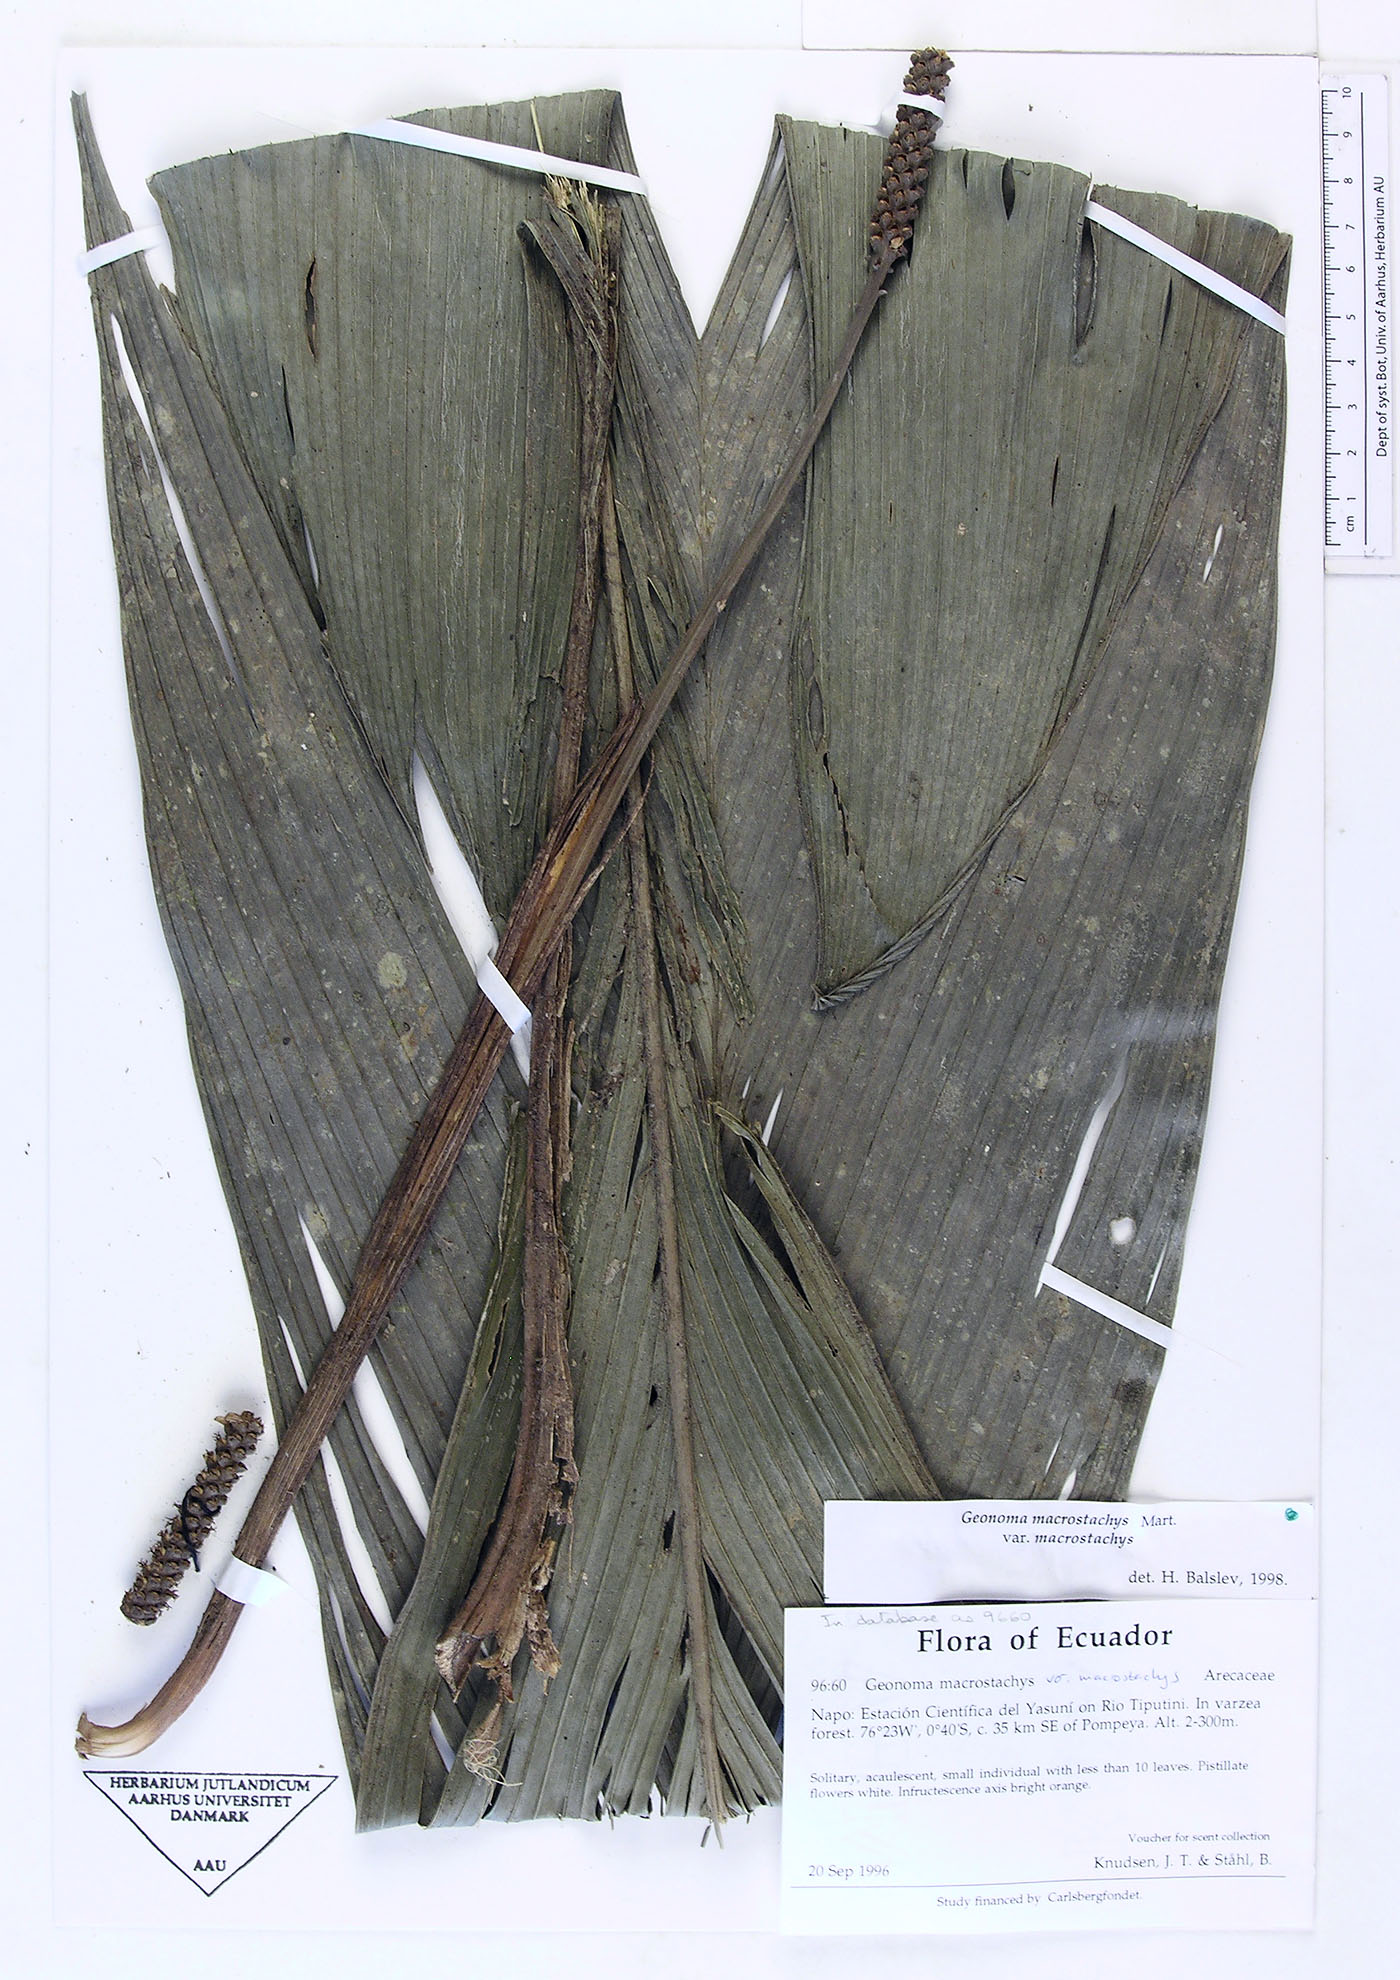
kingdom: Plantae
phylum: Tracheophyta
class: Liliopsida
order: Arecales
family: Arecaceae
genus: Geonoma
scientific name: Geonoma macrostachys
